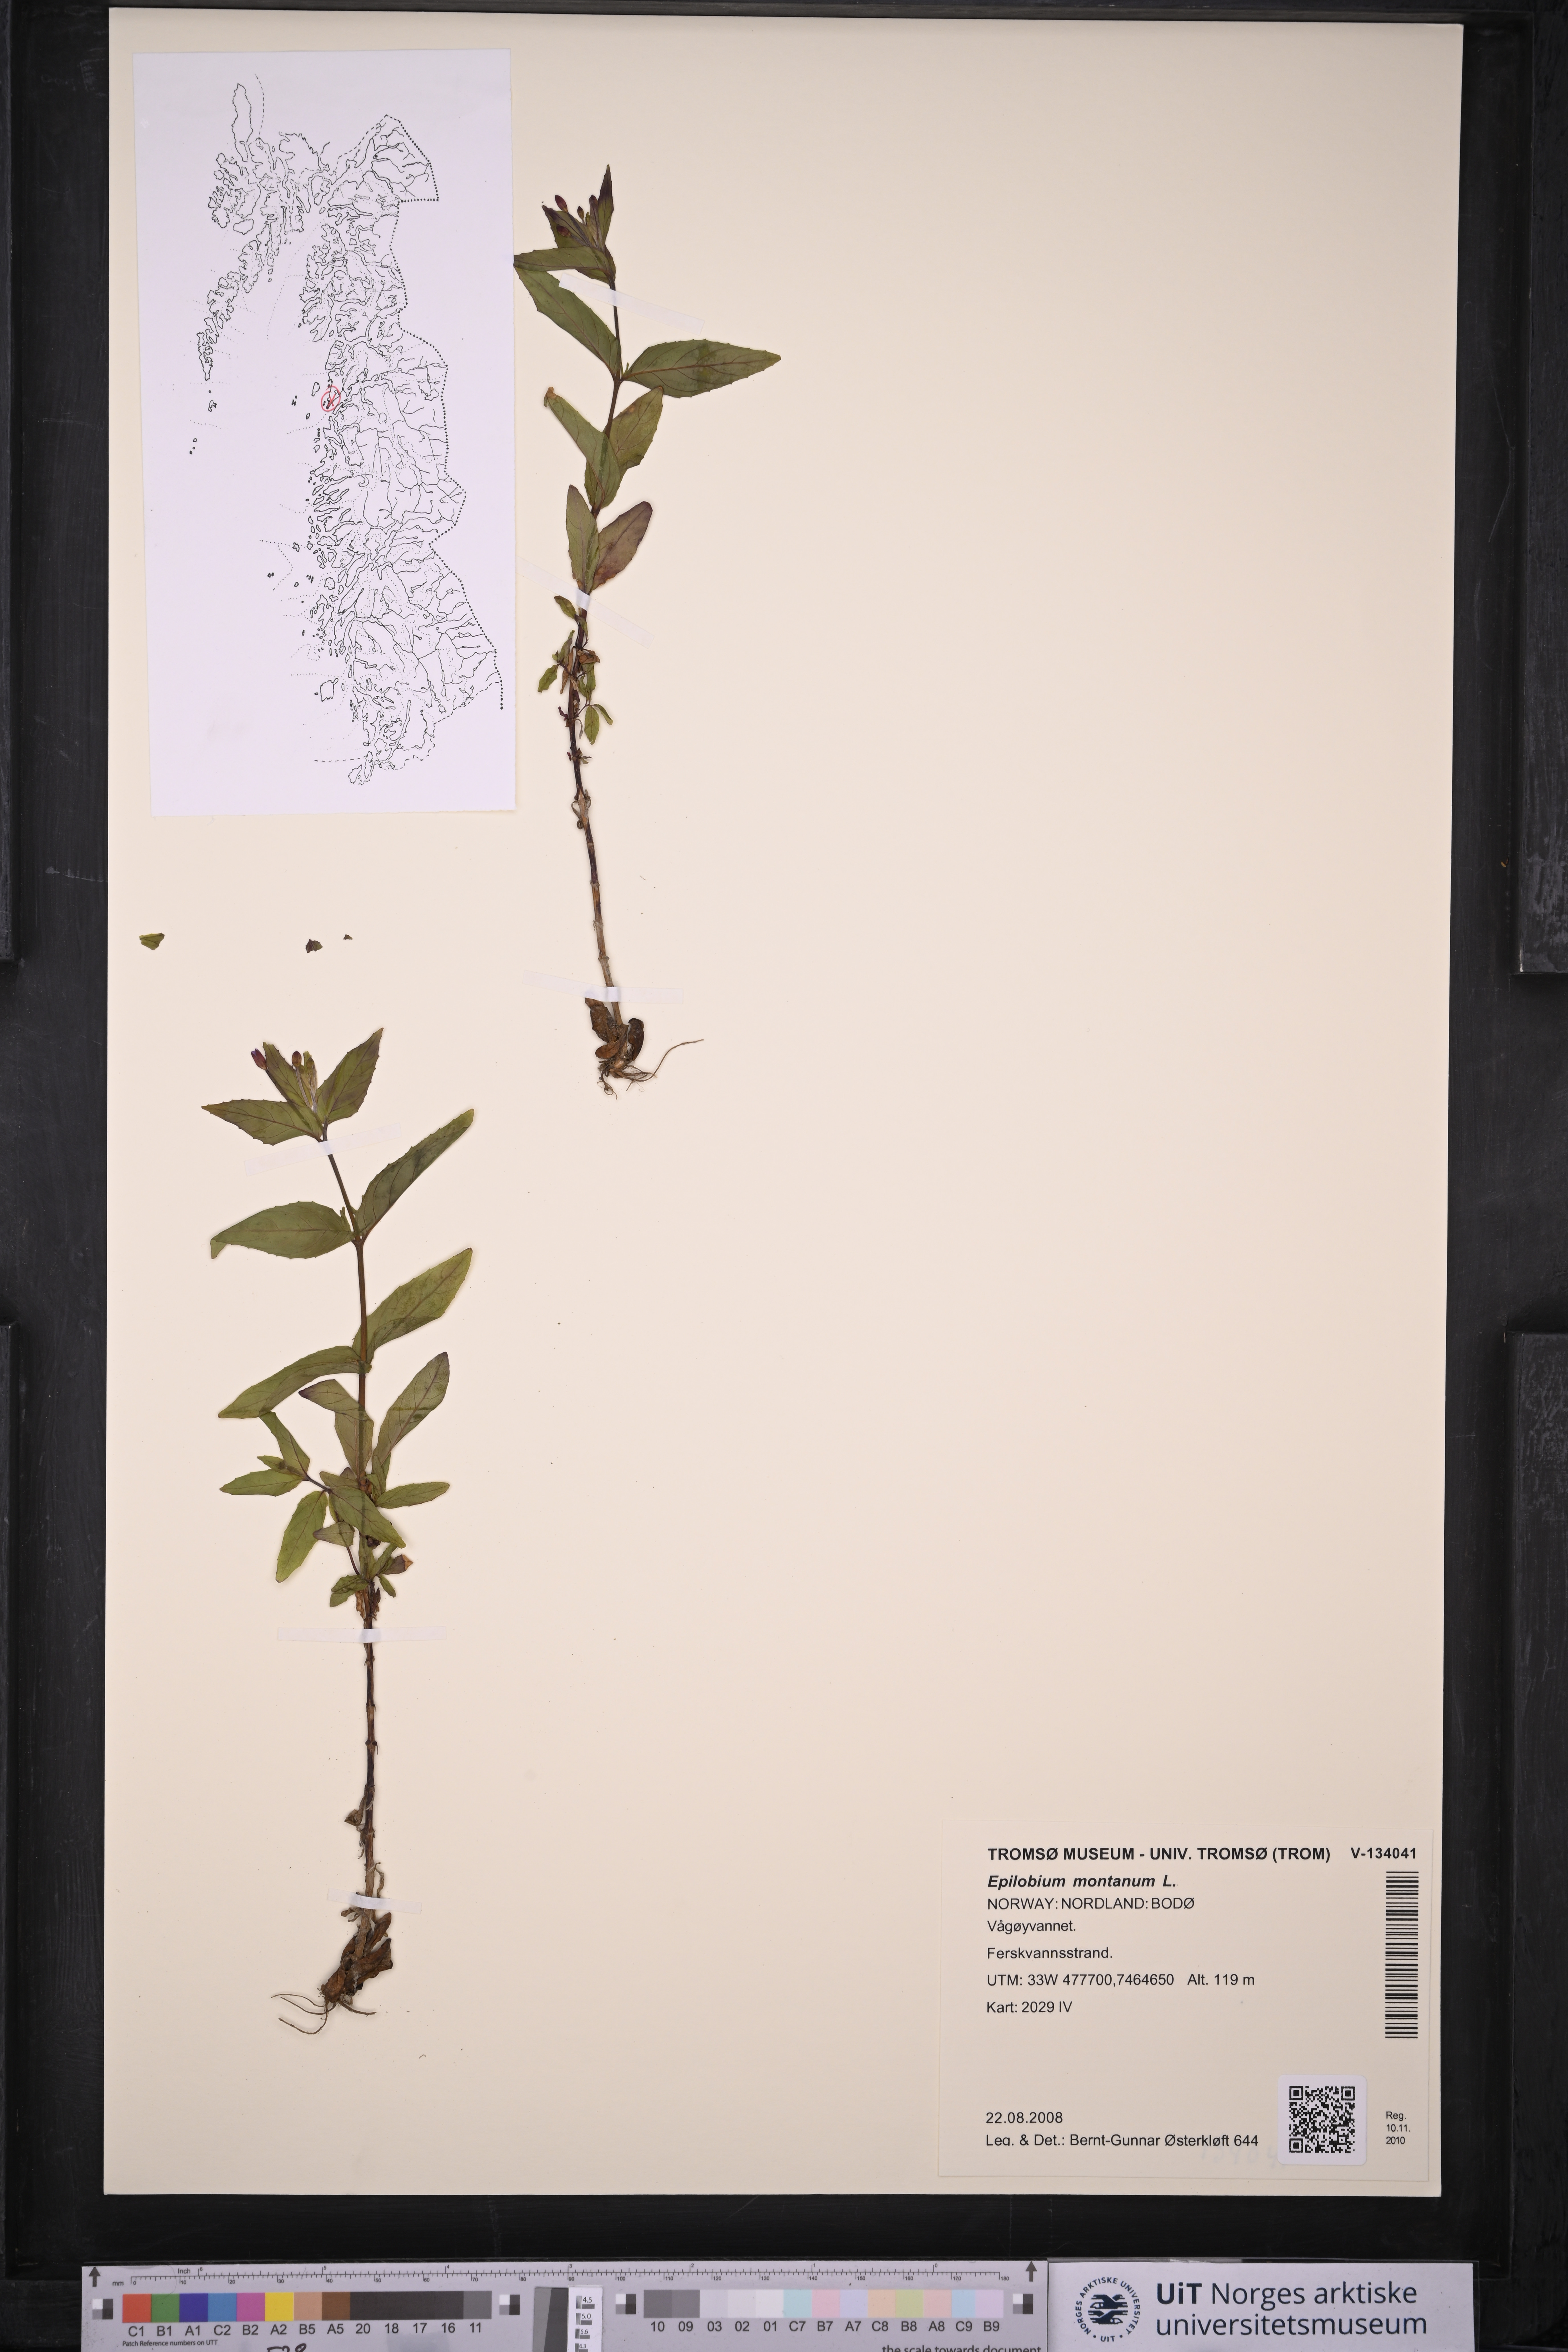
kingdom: Plantae
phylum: Tracheophyta
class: Magnoliopsida
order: Myrtales
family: Onagraceae
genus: Epilobium
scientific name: Epilobium montanum
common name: Broad-leaved willowherb
